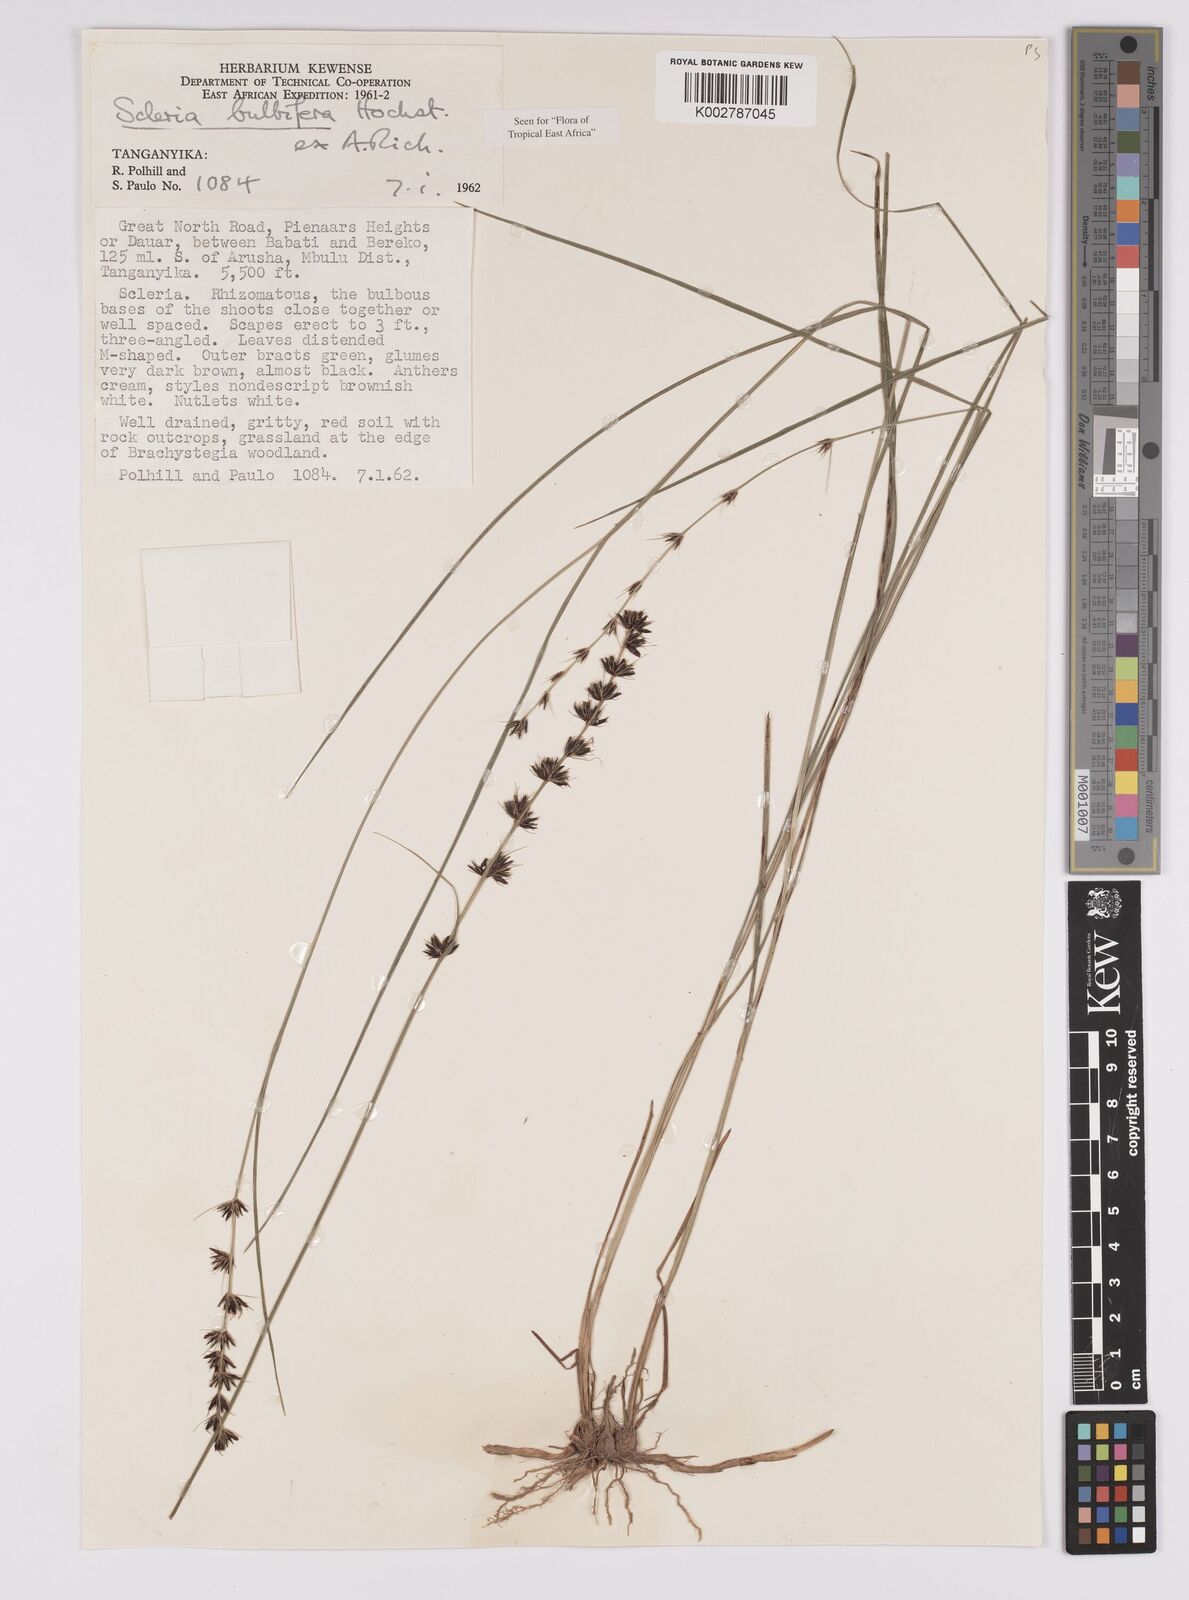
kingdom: Plantae
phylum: Tracheophyta
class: Liliopsida
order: Poales
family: Cyperaceae
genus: Scleria
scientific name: Scleria bulbifera
